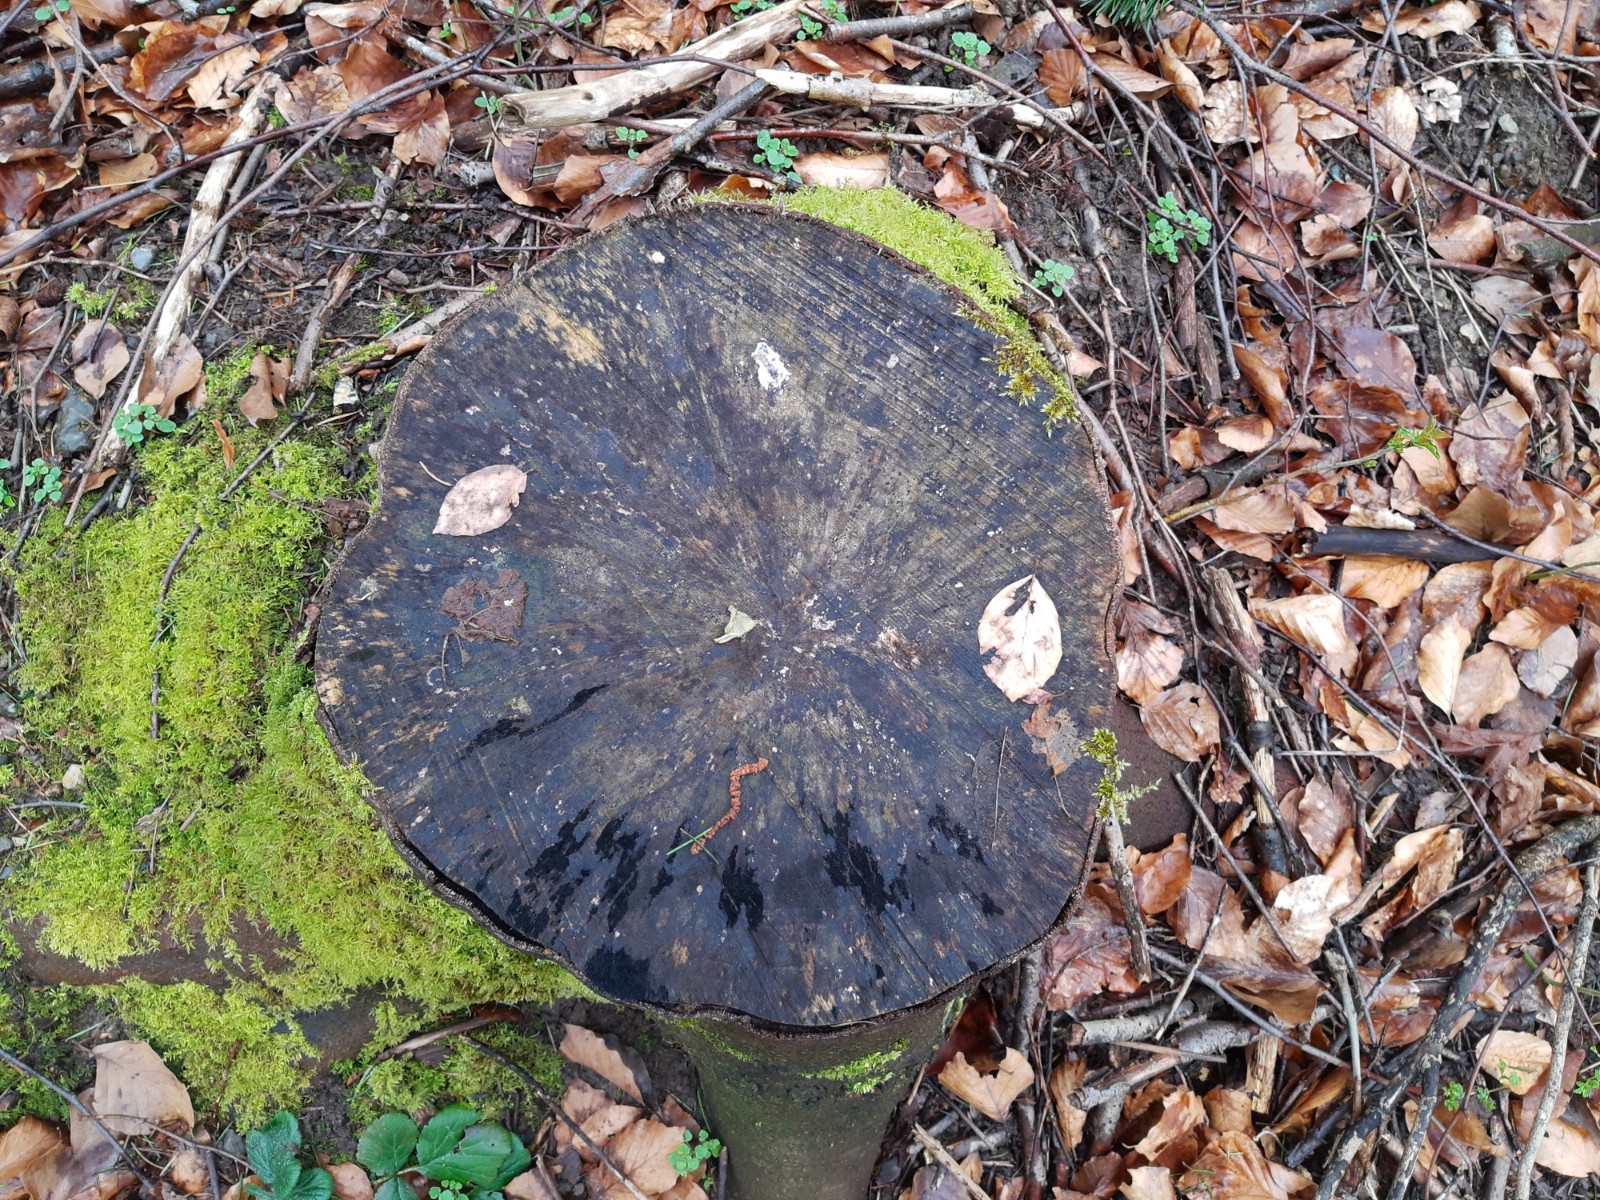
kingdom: Fungi
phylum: Ascomycota
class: Leotiomycetes
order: Helotiales
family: Helotiaceae
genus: Bispora
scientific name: Bispora pallescens
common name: måtte-snitskive
